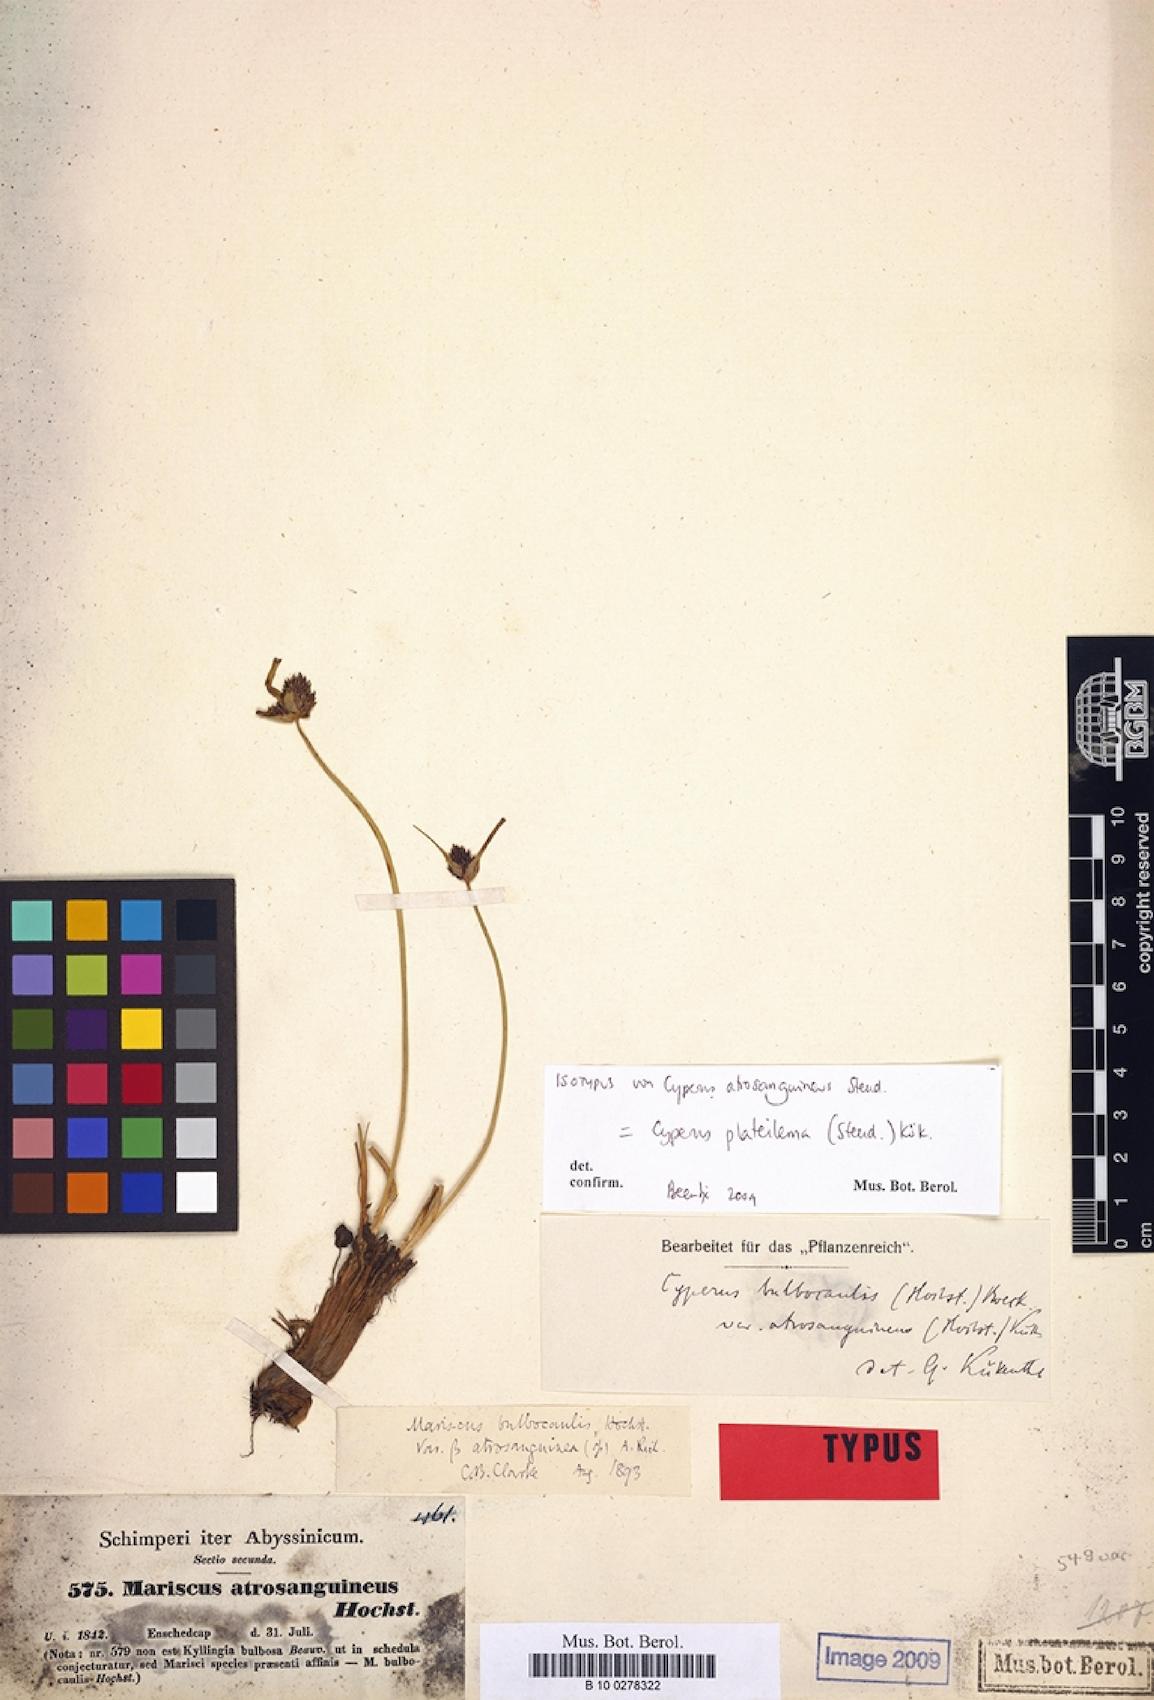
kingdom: Plantae
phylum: Tracheophyta
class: Liliopsida
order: Poales
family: Cyperaceae
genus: Cyperus
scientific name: Cyperus plateilema
